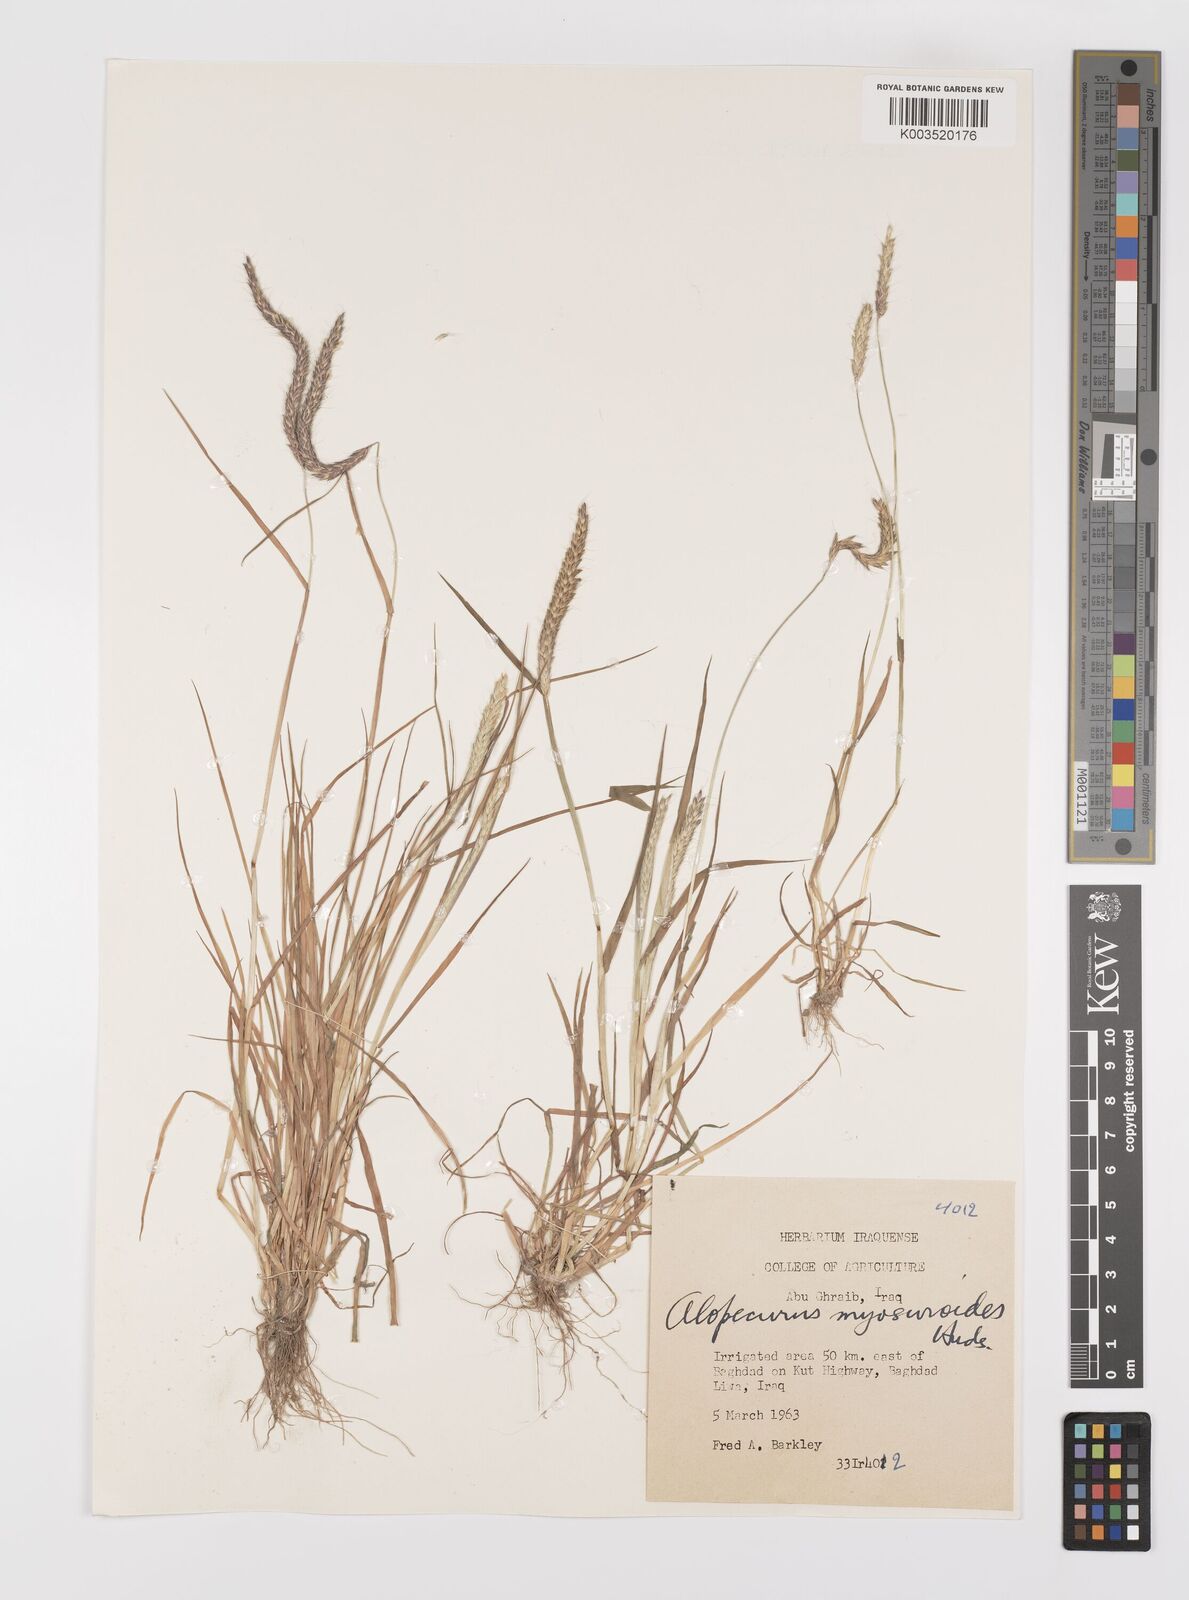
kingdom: Plantae
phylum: Tracheophyta
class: Liliopsida
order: Poales
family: Poaceae
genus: Alopecurus
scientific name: Alopecurus myosuroides
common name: Black-grass
